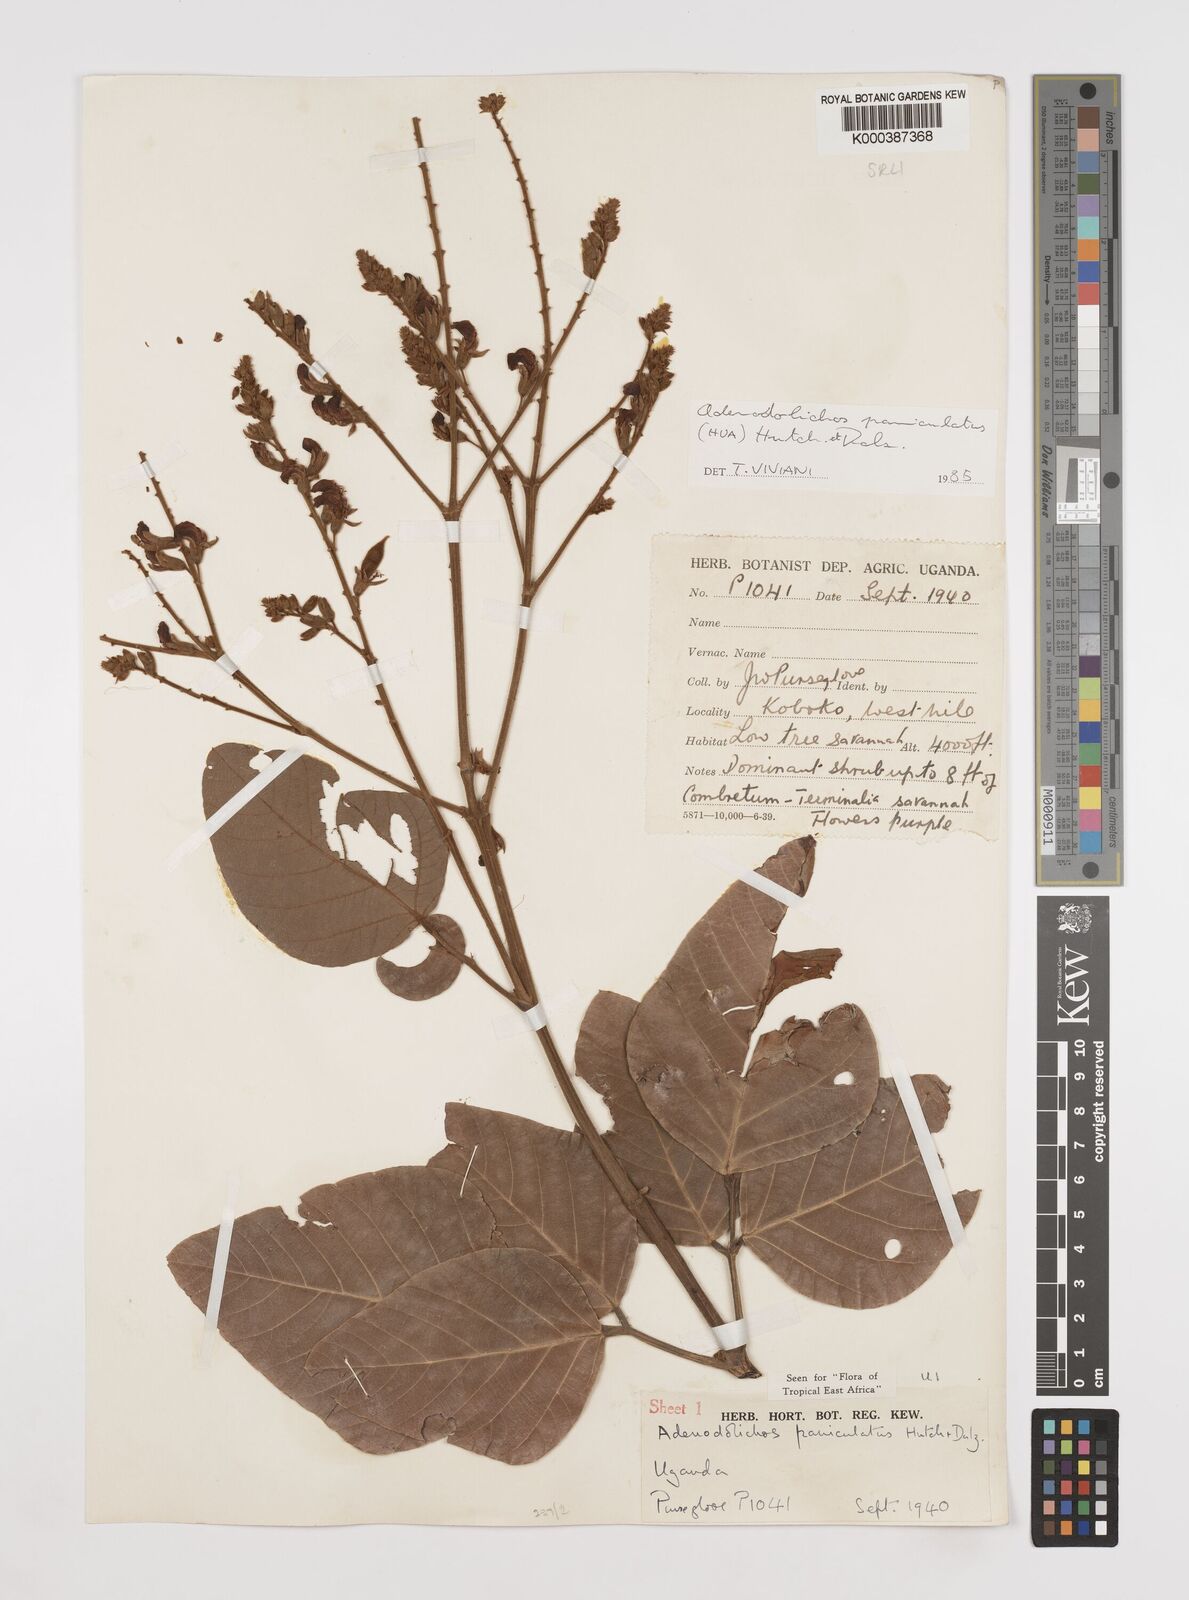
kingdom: Plantae
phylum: Tracheophyta
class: Magnoliopsida
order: Fabales
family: Fabaceae
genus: Adenodolichos
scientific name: Adenodolichos kaessneri
